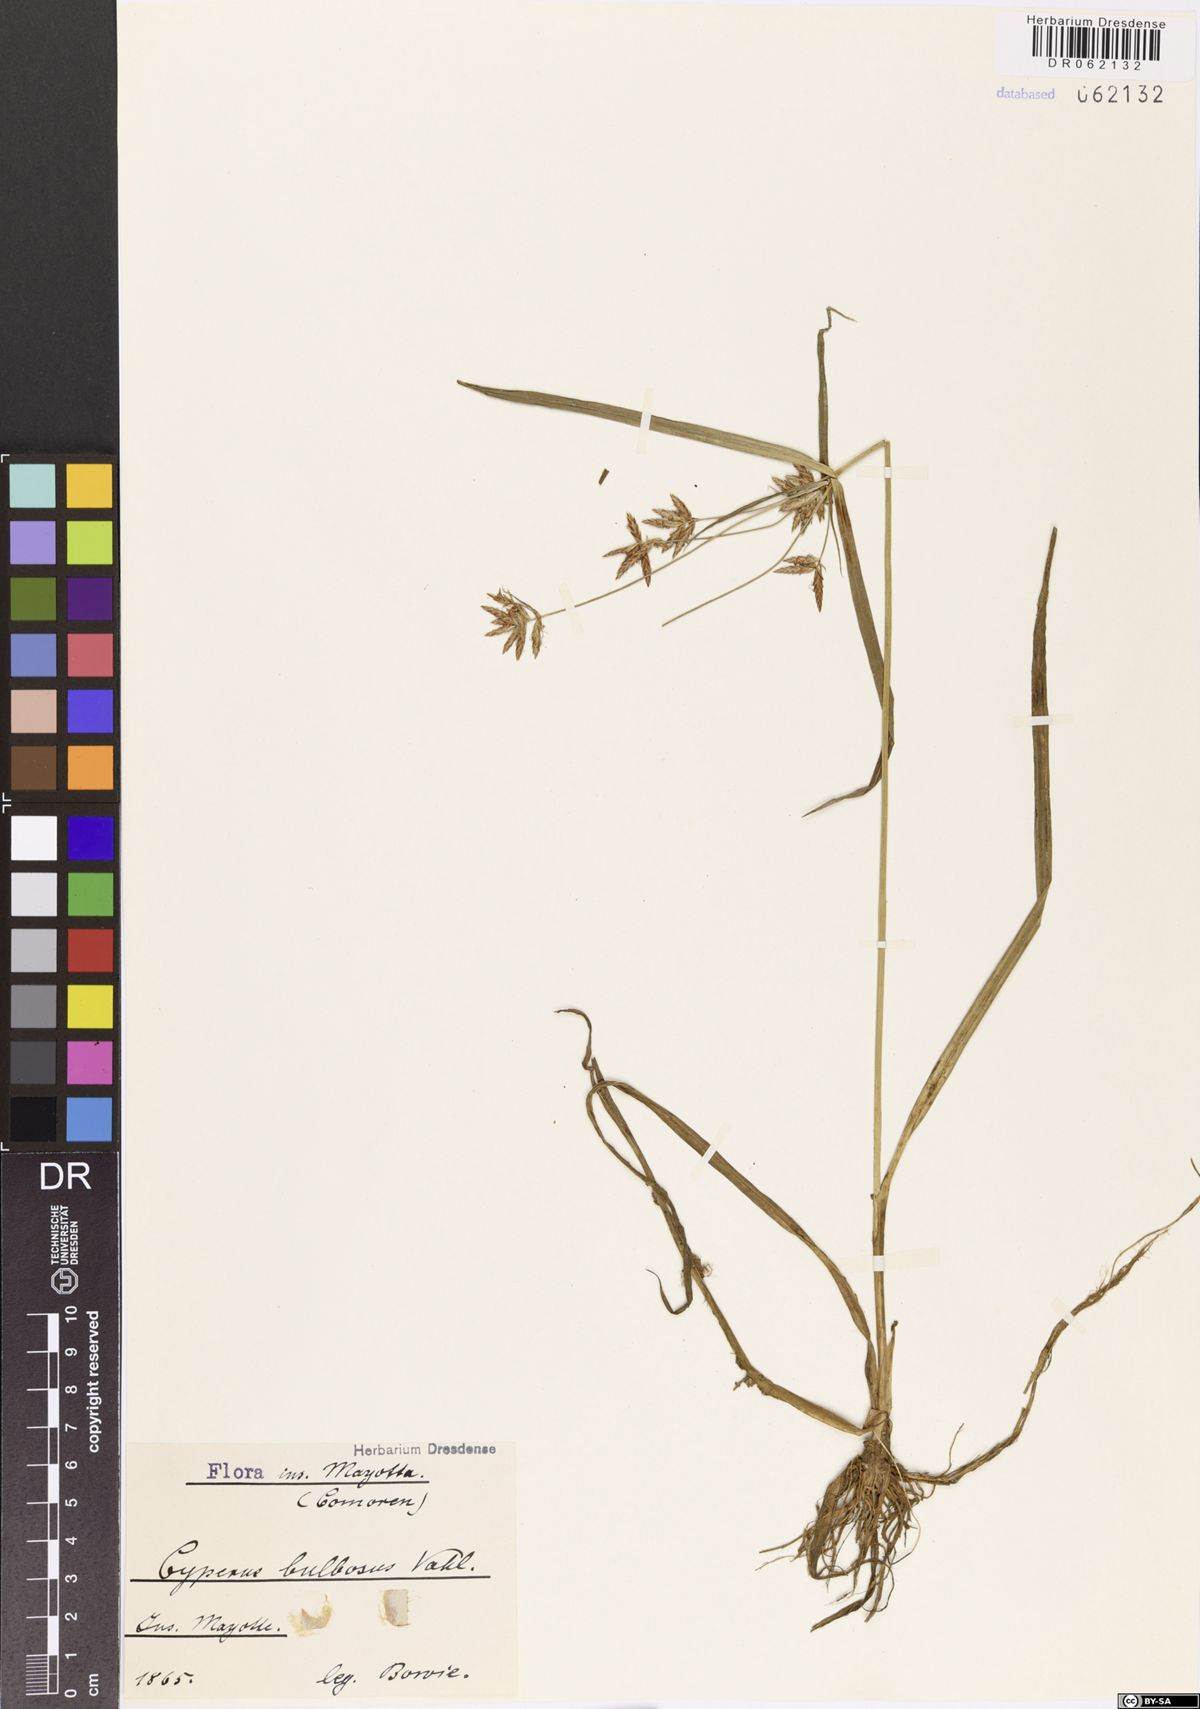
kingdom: Plantae
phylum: Tracheophyta
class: Liliopsida
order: Poales
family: Cyperaceae
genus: Cyperus
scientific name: Cyperus bulbosus
